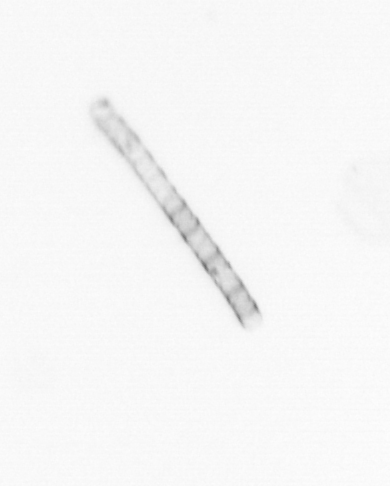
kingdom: Chromista
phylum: Ochrophyta
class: Bacillariophyceae
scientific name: Bacillariophyceae
